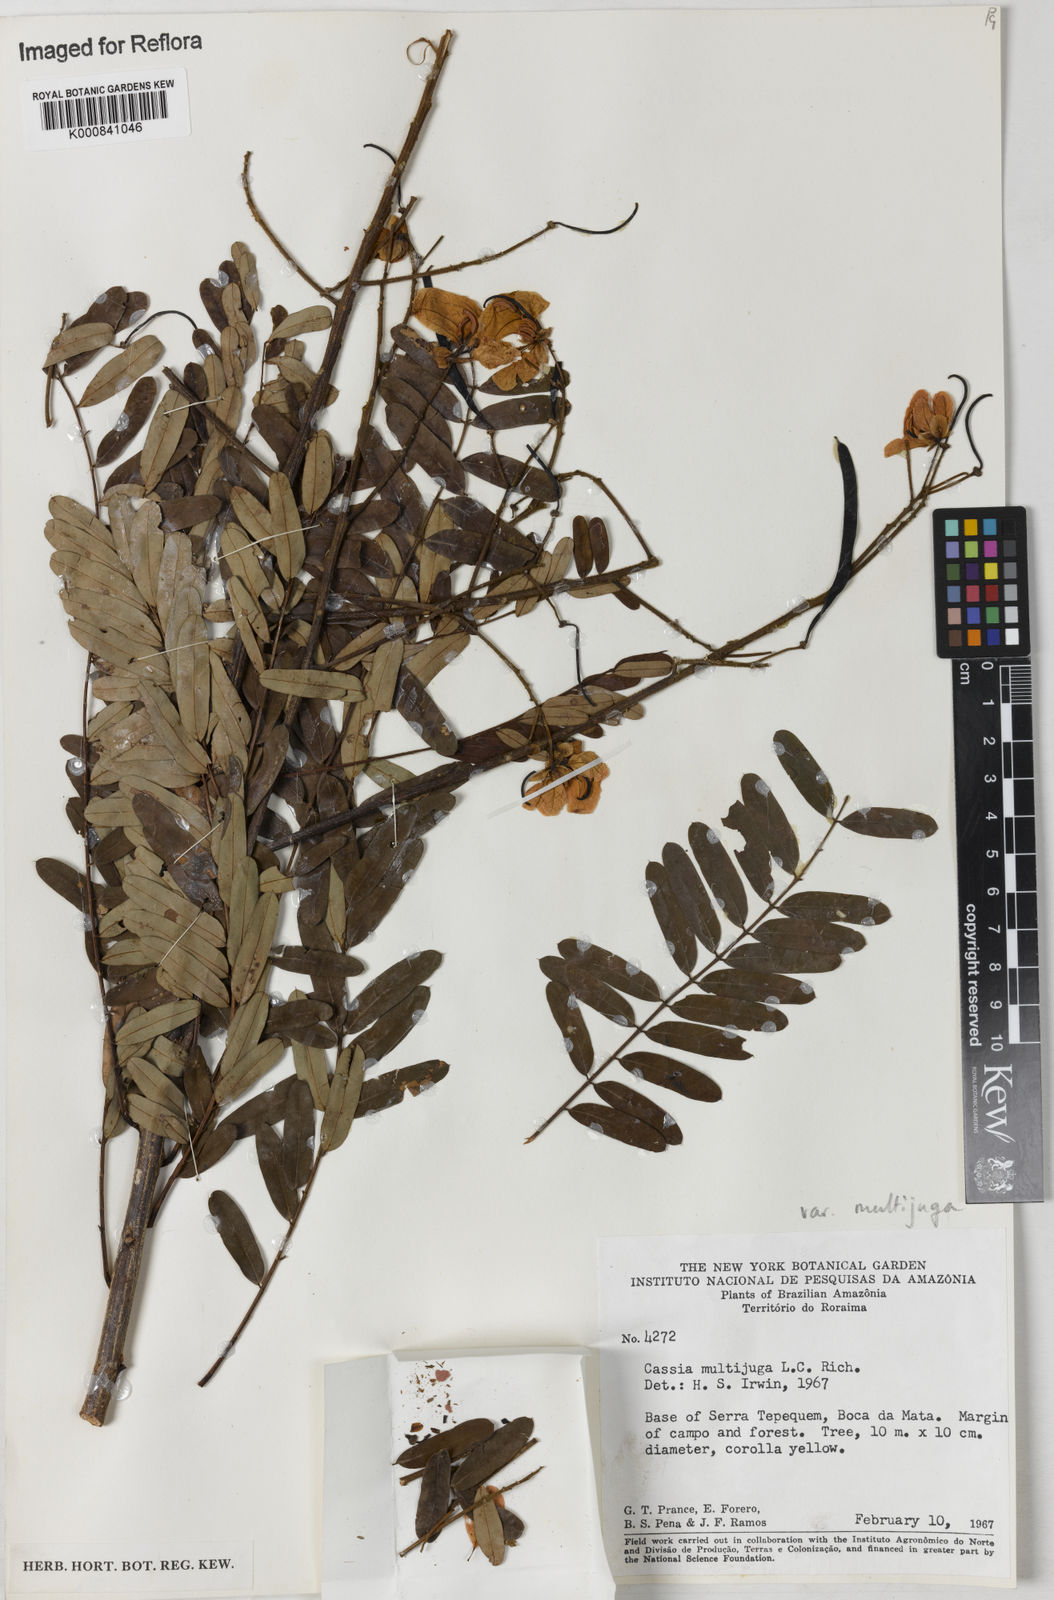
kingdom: Plantae
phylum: Tracheophyta
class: Magnoliopsida
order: Fabales
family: Fabaceae
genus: Senna
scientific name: Senna multijuga
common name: False sicklepod
